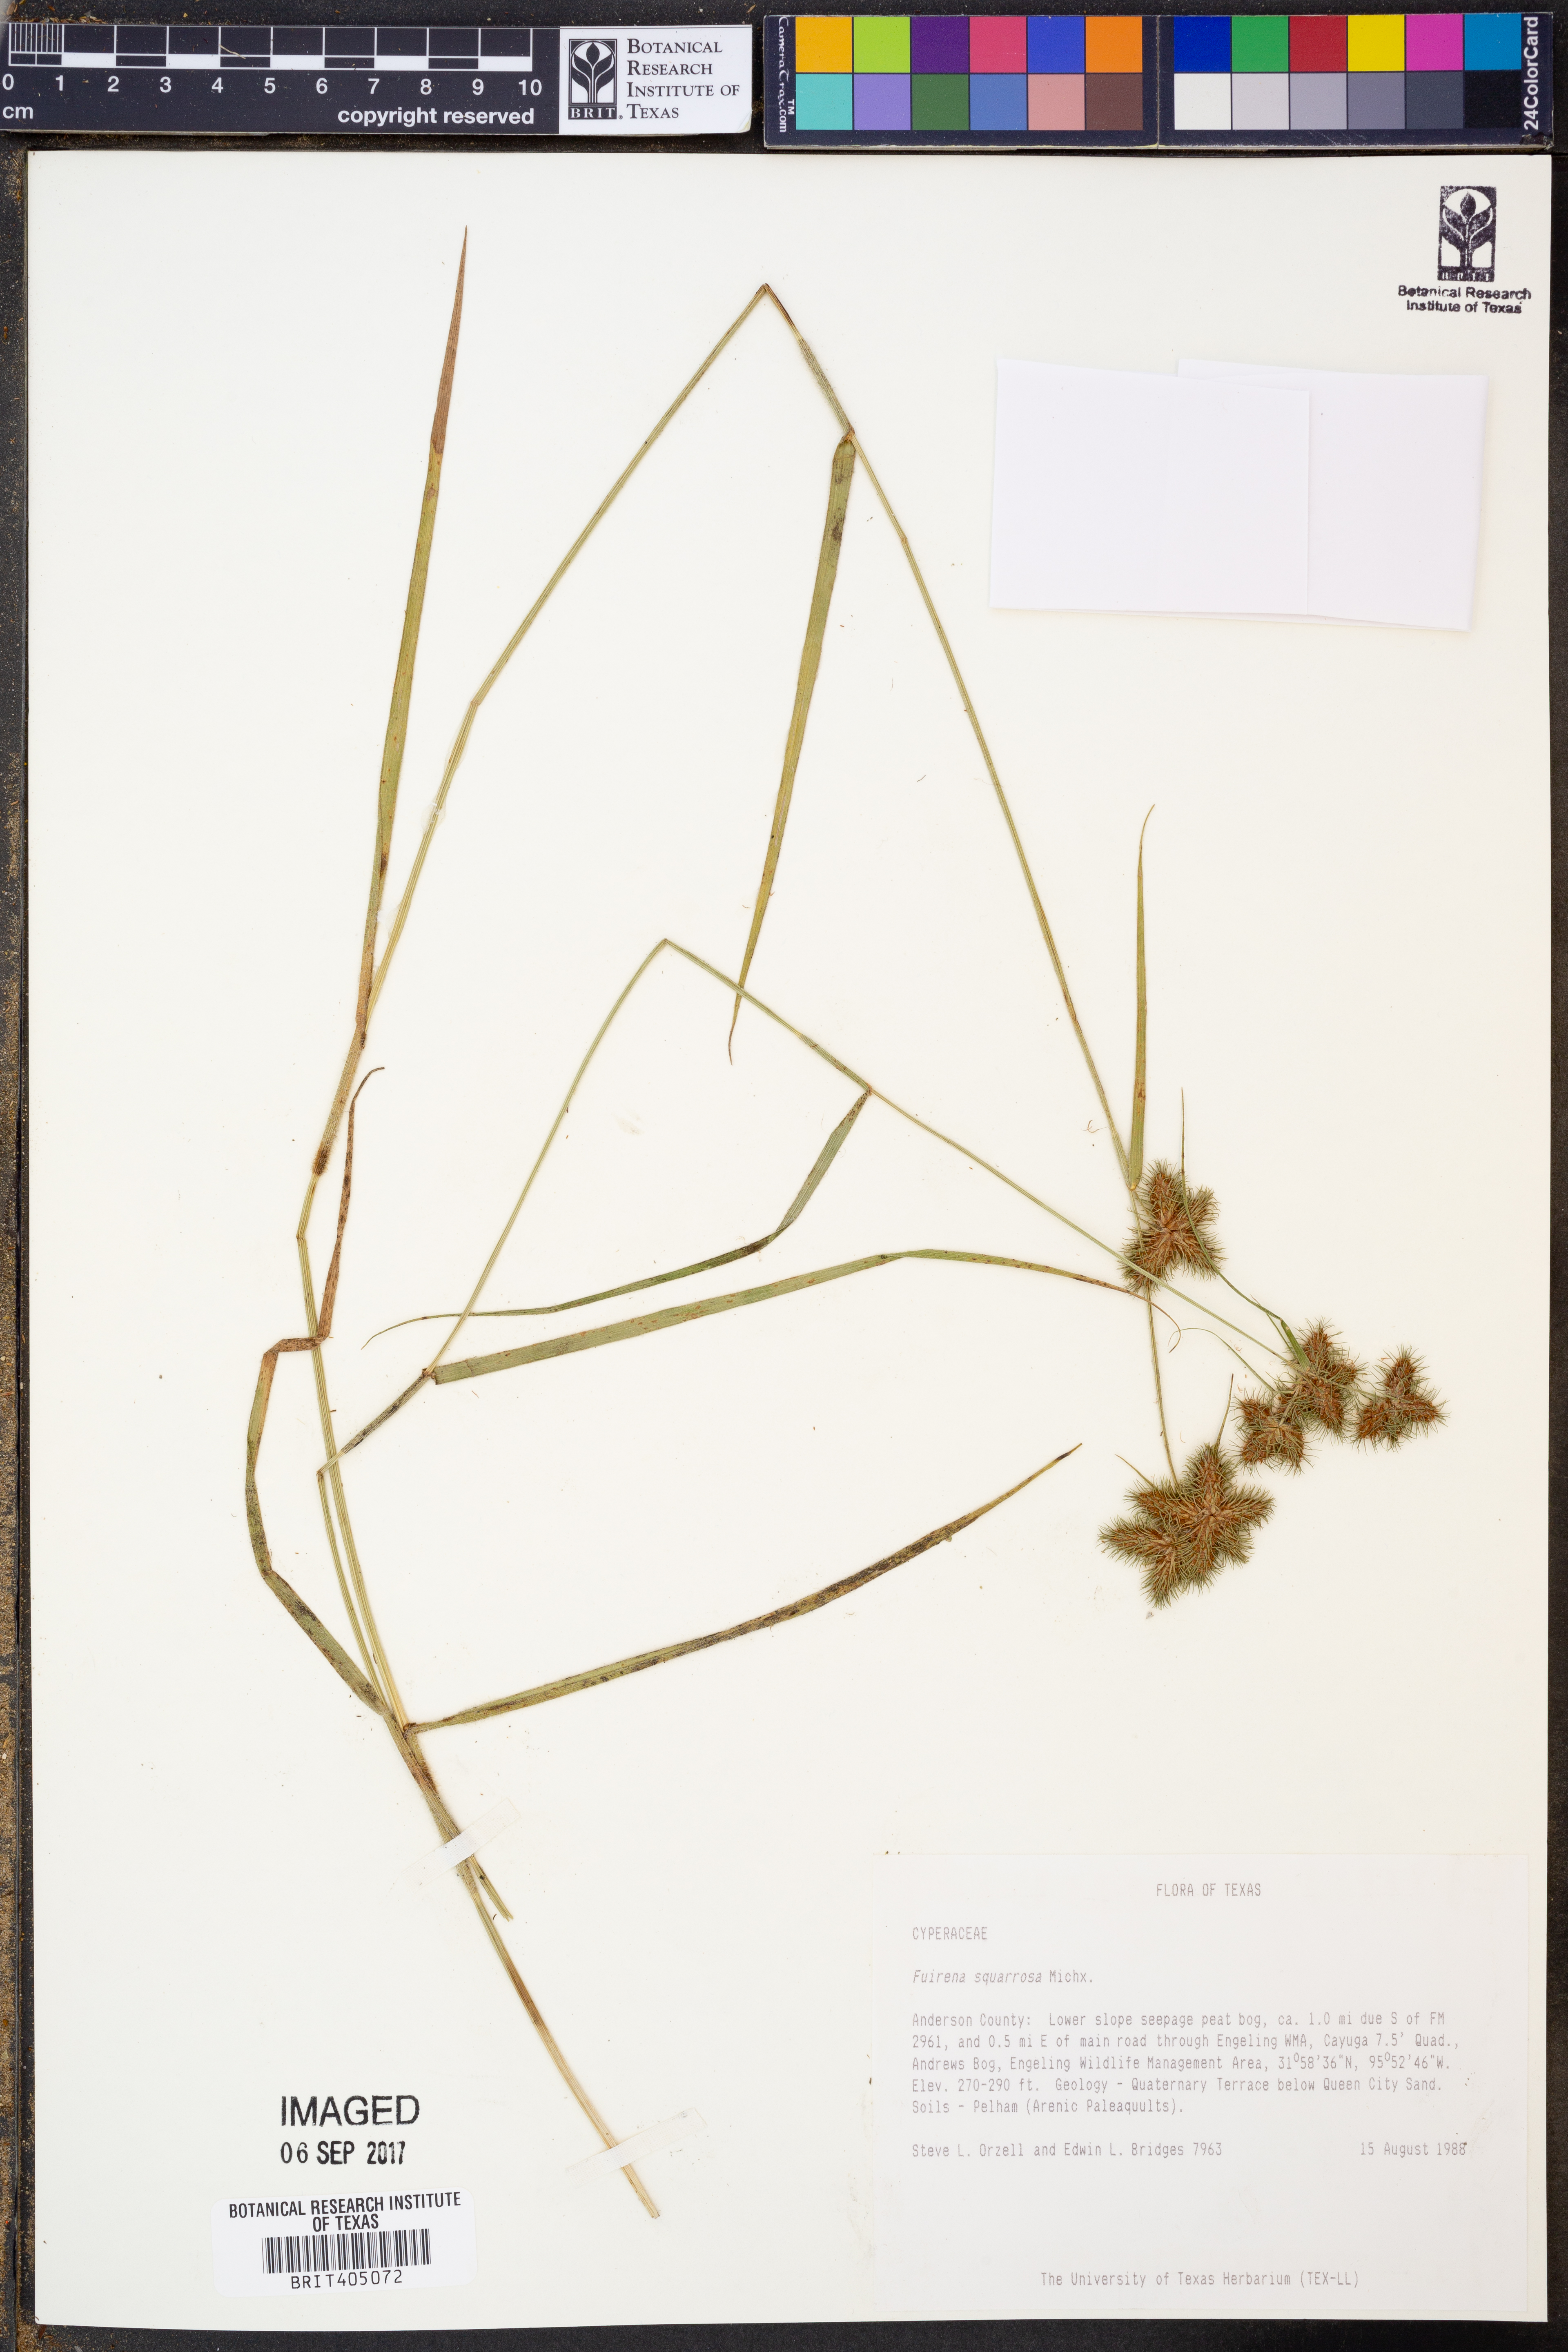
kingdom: Plantae
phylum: Tracheophyta
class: Liliopsida
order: Poales
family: Cyperaceae
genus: Fuirena
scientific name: Fuirena squarrosa
